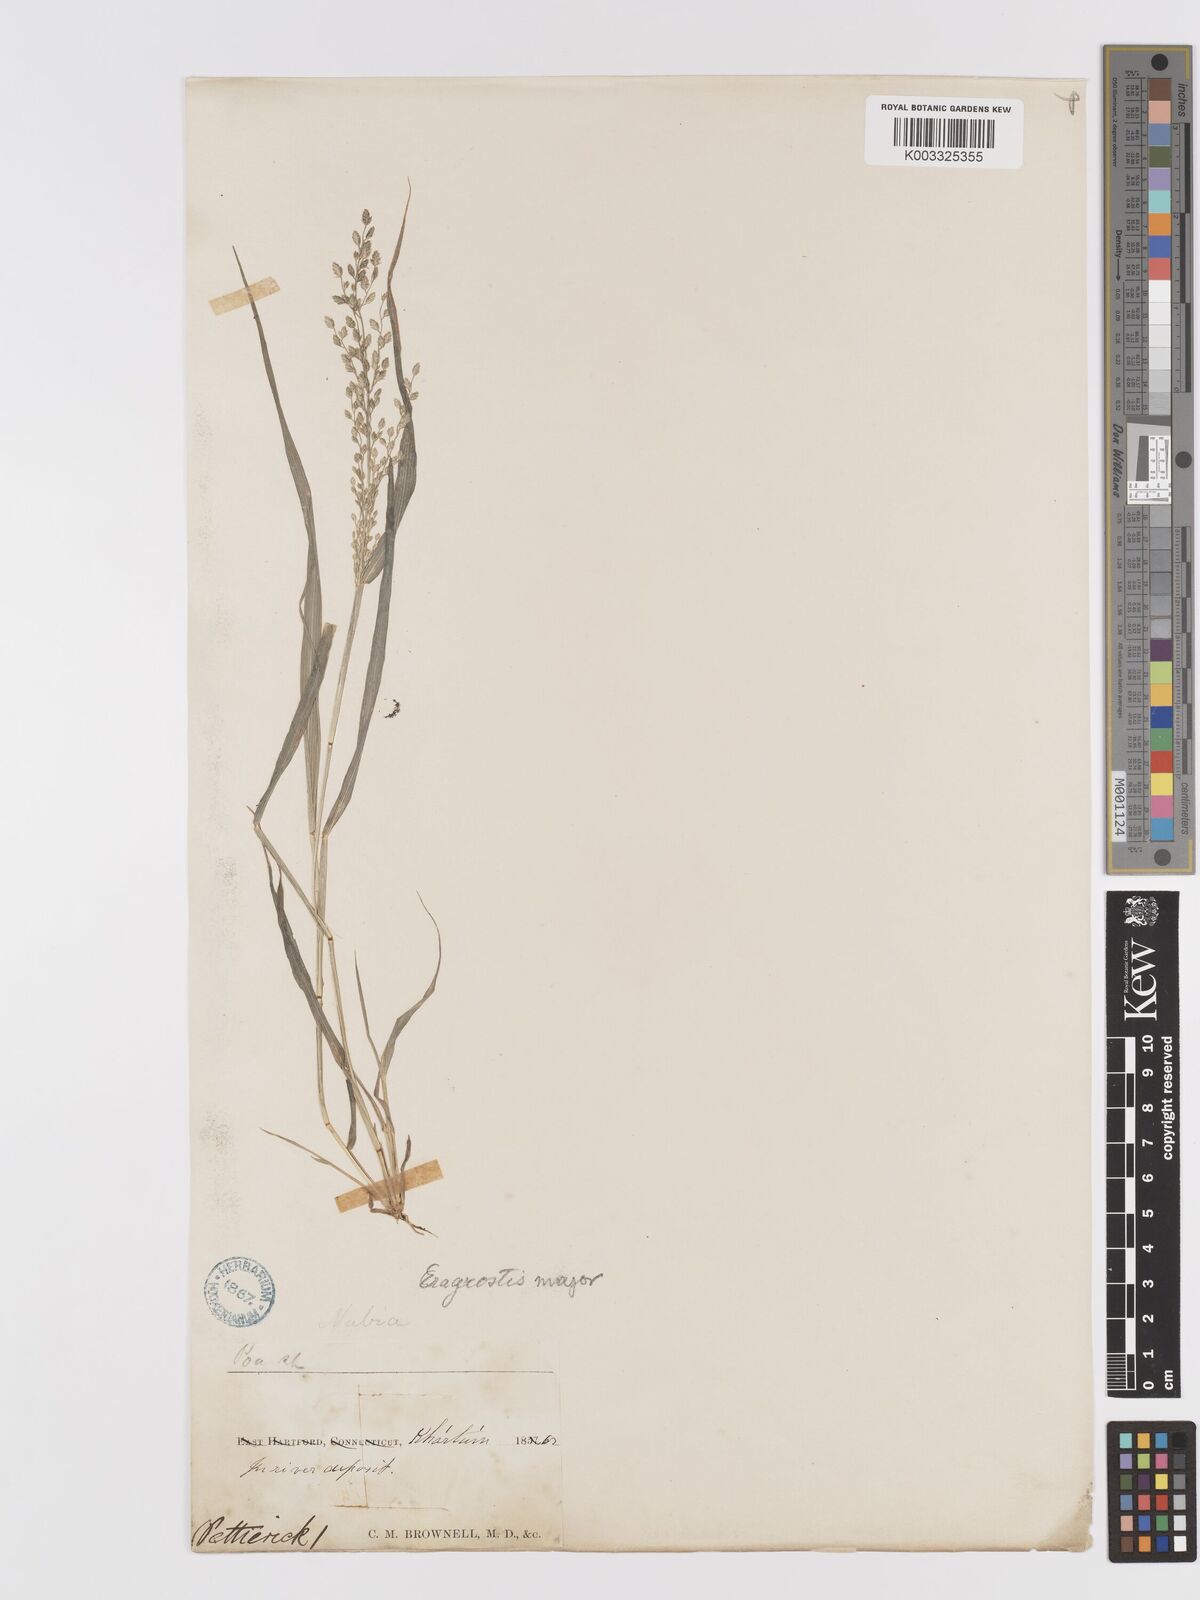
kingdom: Plantae
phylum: Tracheophyta
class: Liliopsida
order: Poales
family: Poaceae
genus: Eragrostis
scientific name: Eragrostis cilianensis
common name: Stinkgrass
